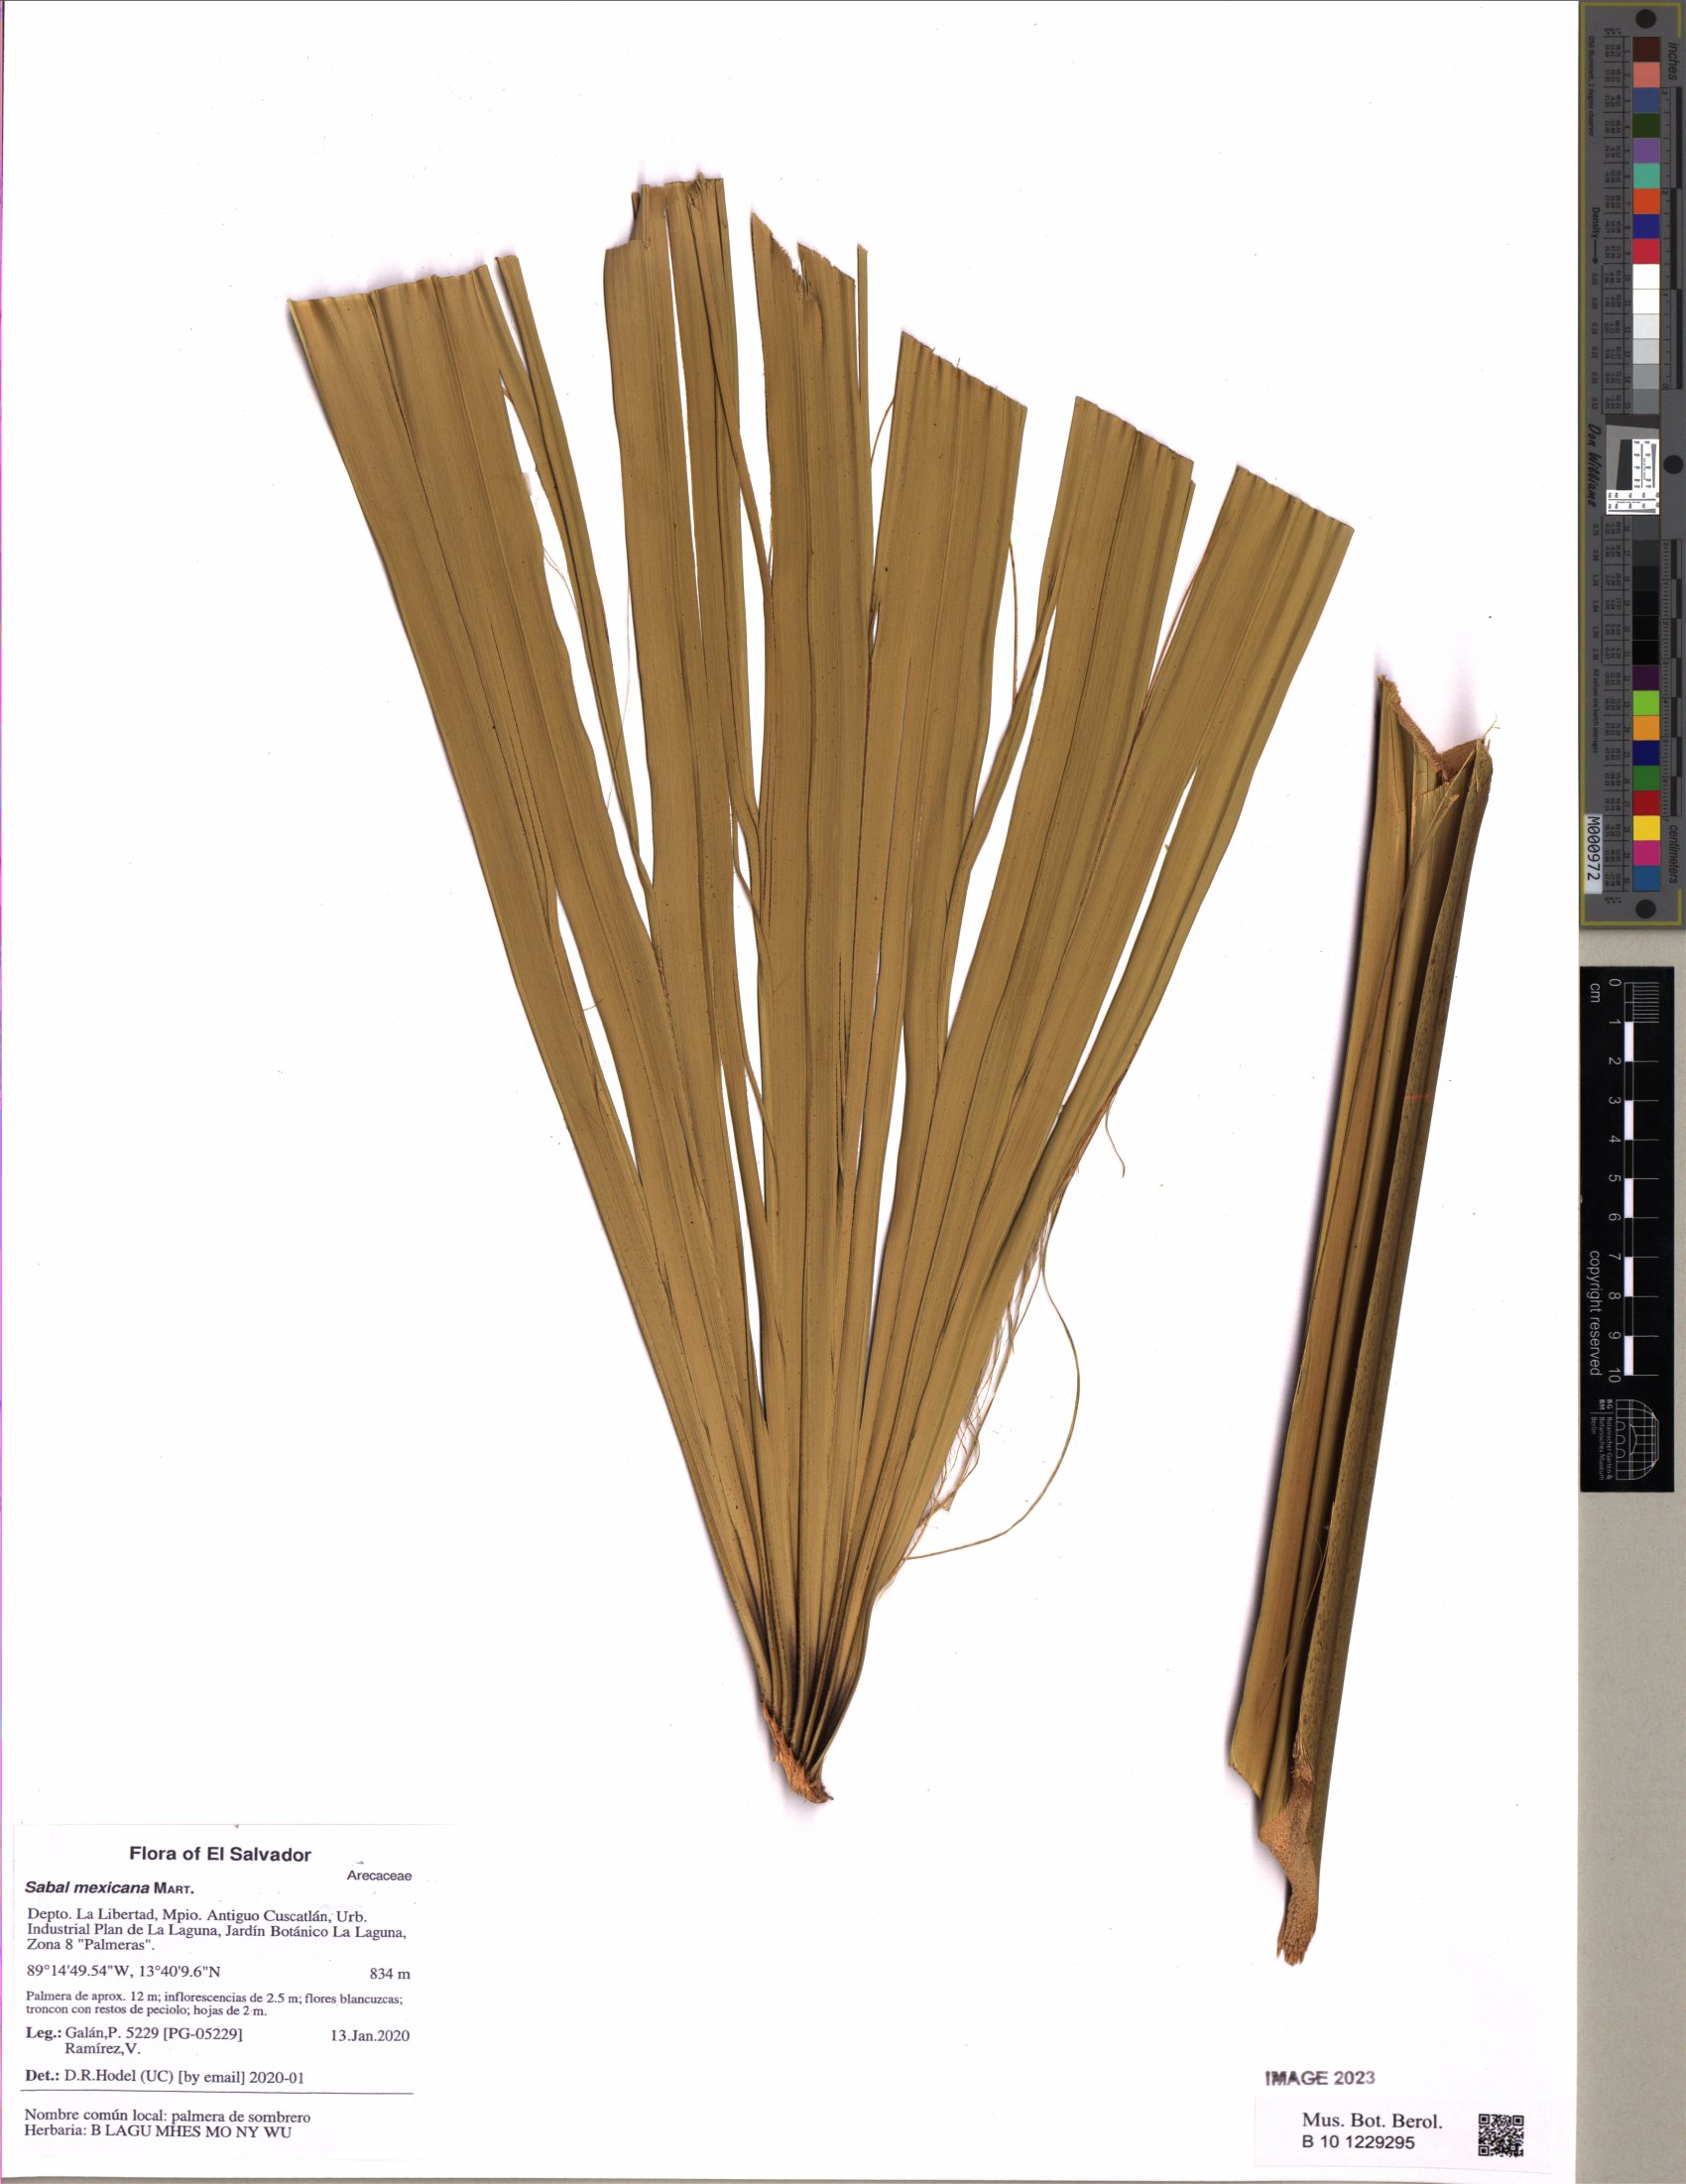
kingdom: Plantae
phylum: Tracheophyta
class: Liliopsida
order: Arecales
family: Arecaceae
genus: Sabal
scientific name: Sabal mexicana
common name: Texas palmetto
